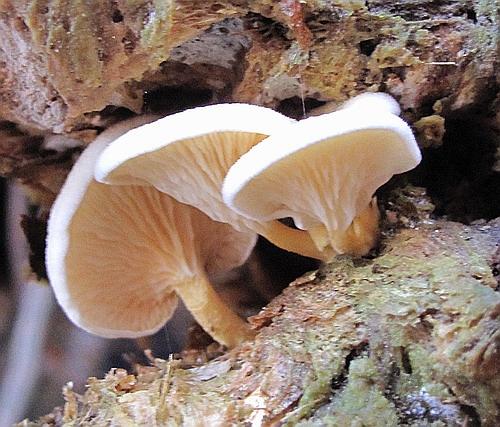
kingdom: Fungi
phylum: Basidiomycota
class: Agaricomycetes
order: Boletales
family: Hygrophoropsidaceae
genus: Hygrophoropsis
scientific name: Hygrophoropsis pallida
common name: bleg orangekantarel
